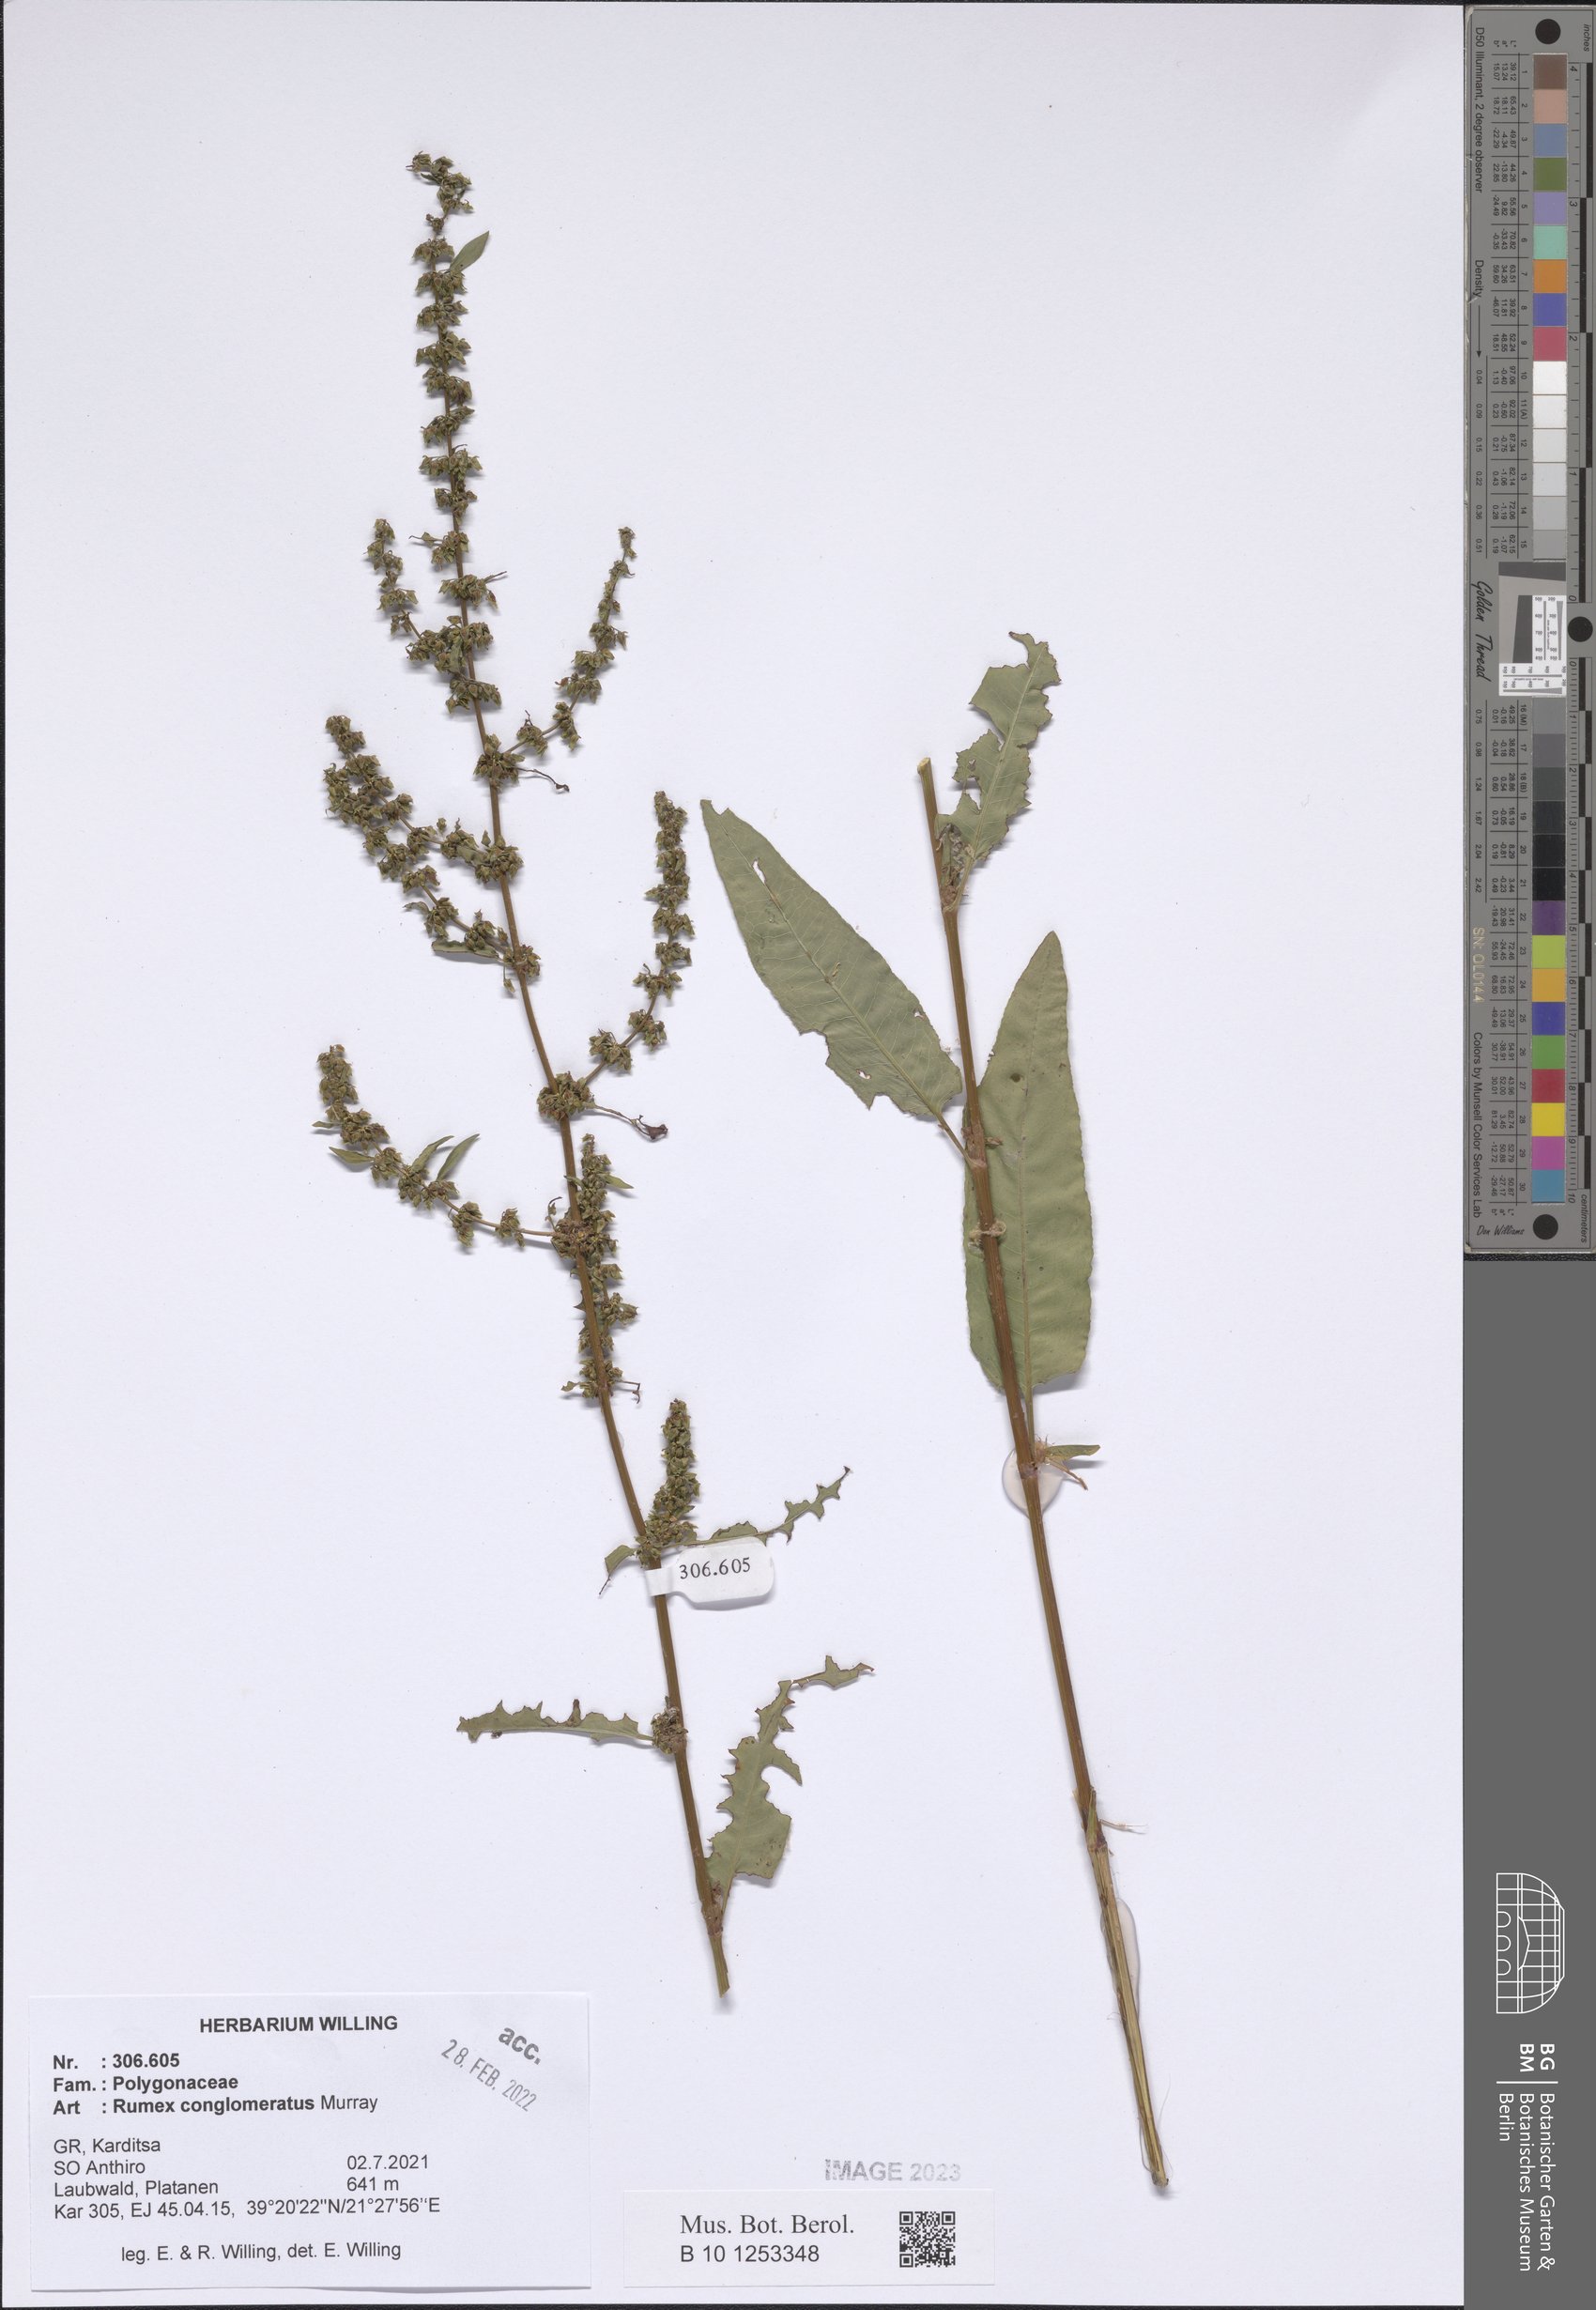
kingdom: Plantae
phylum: Tracheophyta
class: Magnoliopsida
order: Caryophyllales
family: Polygonaceae
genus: Rumex
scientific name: Rumex conglomeratus
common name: Clustered dock
